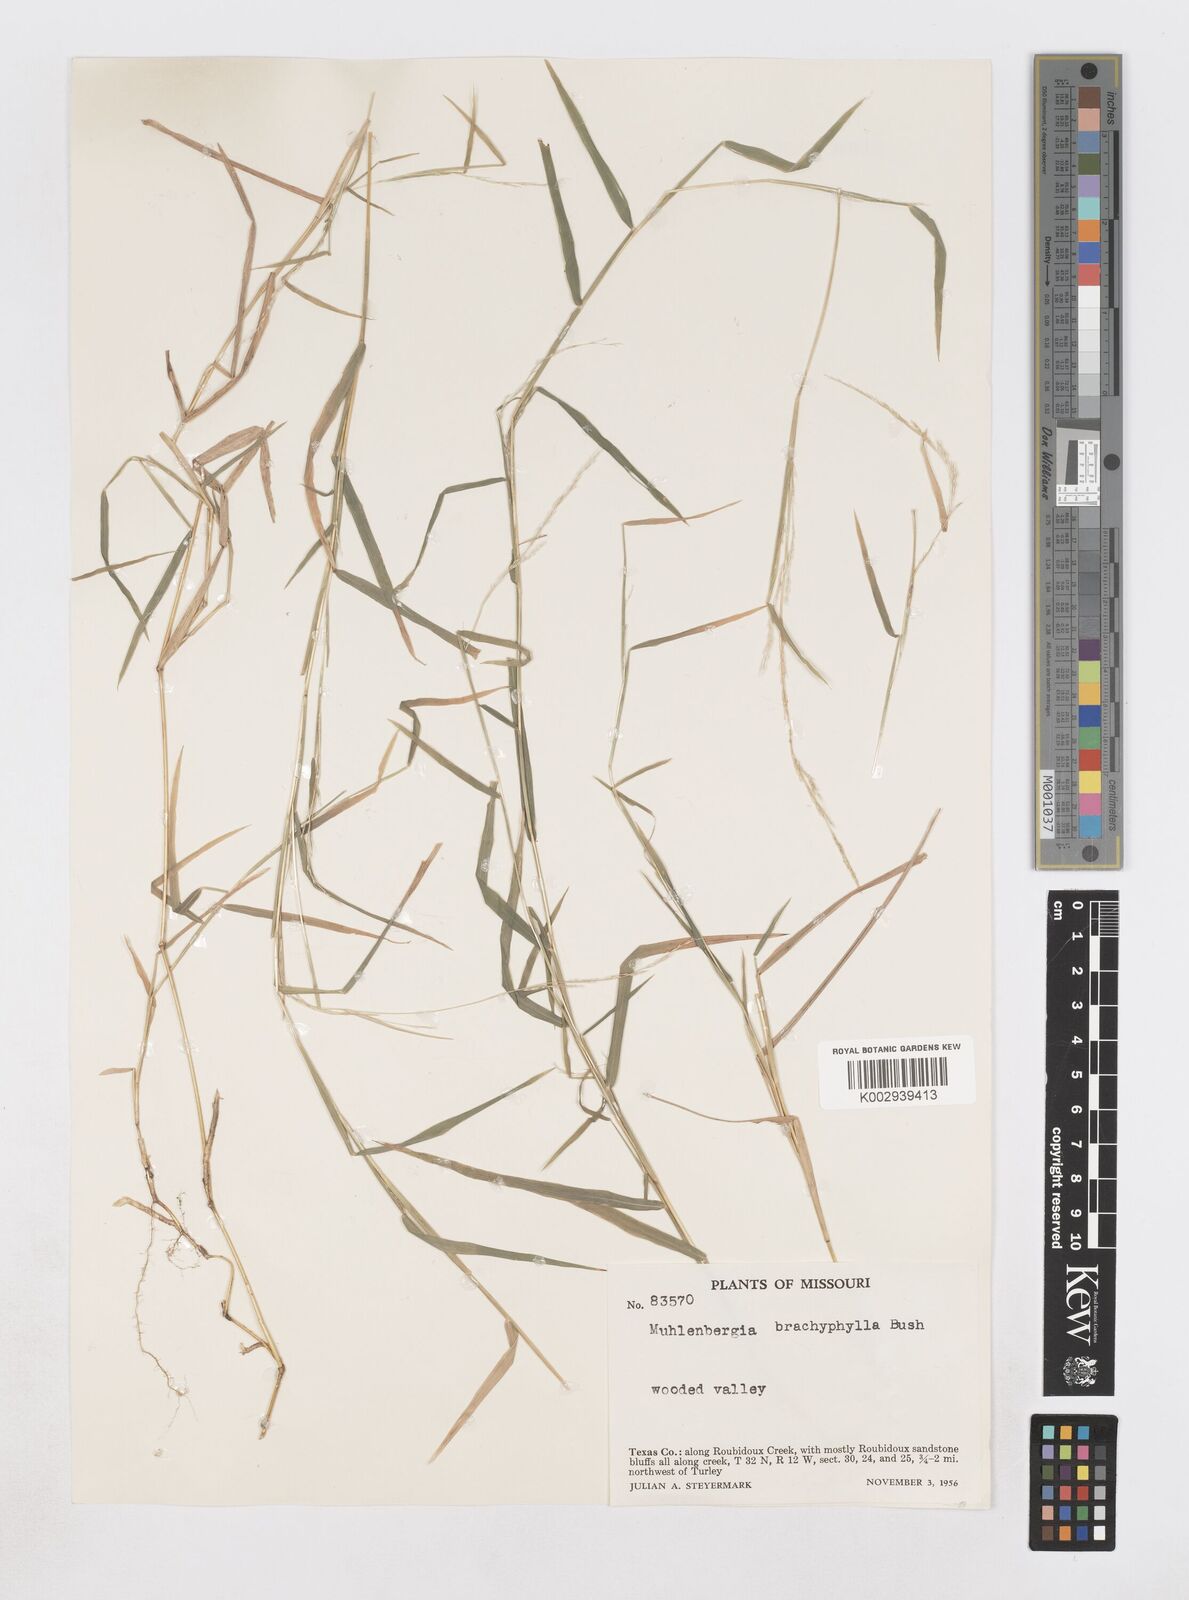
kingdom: Plantae
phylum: Tracheophyta
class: Liliopsida
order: Poales
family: Poaceae
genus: Muhlenbergia
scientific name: Muhlenbergia bushii
